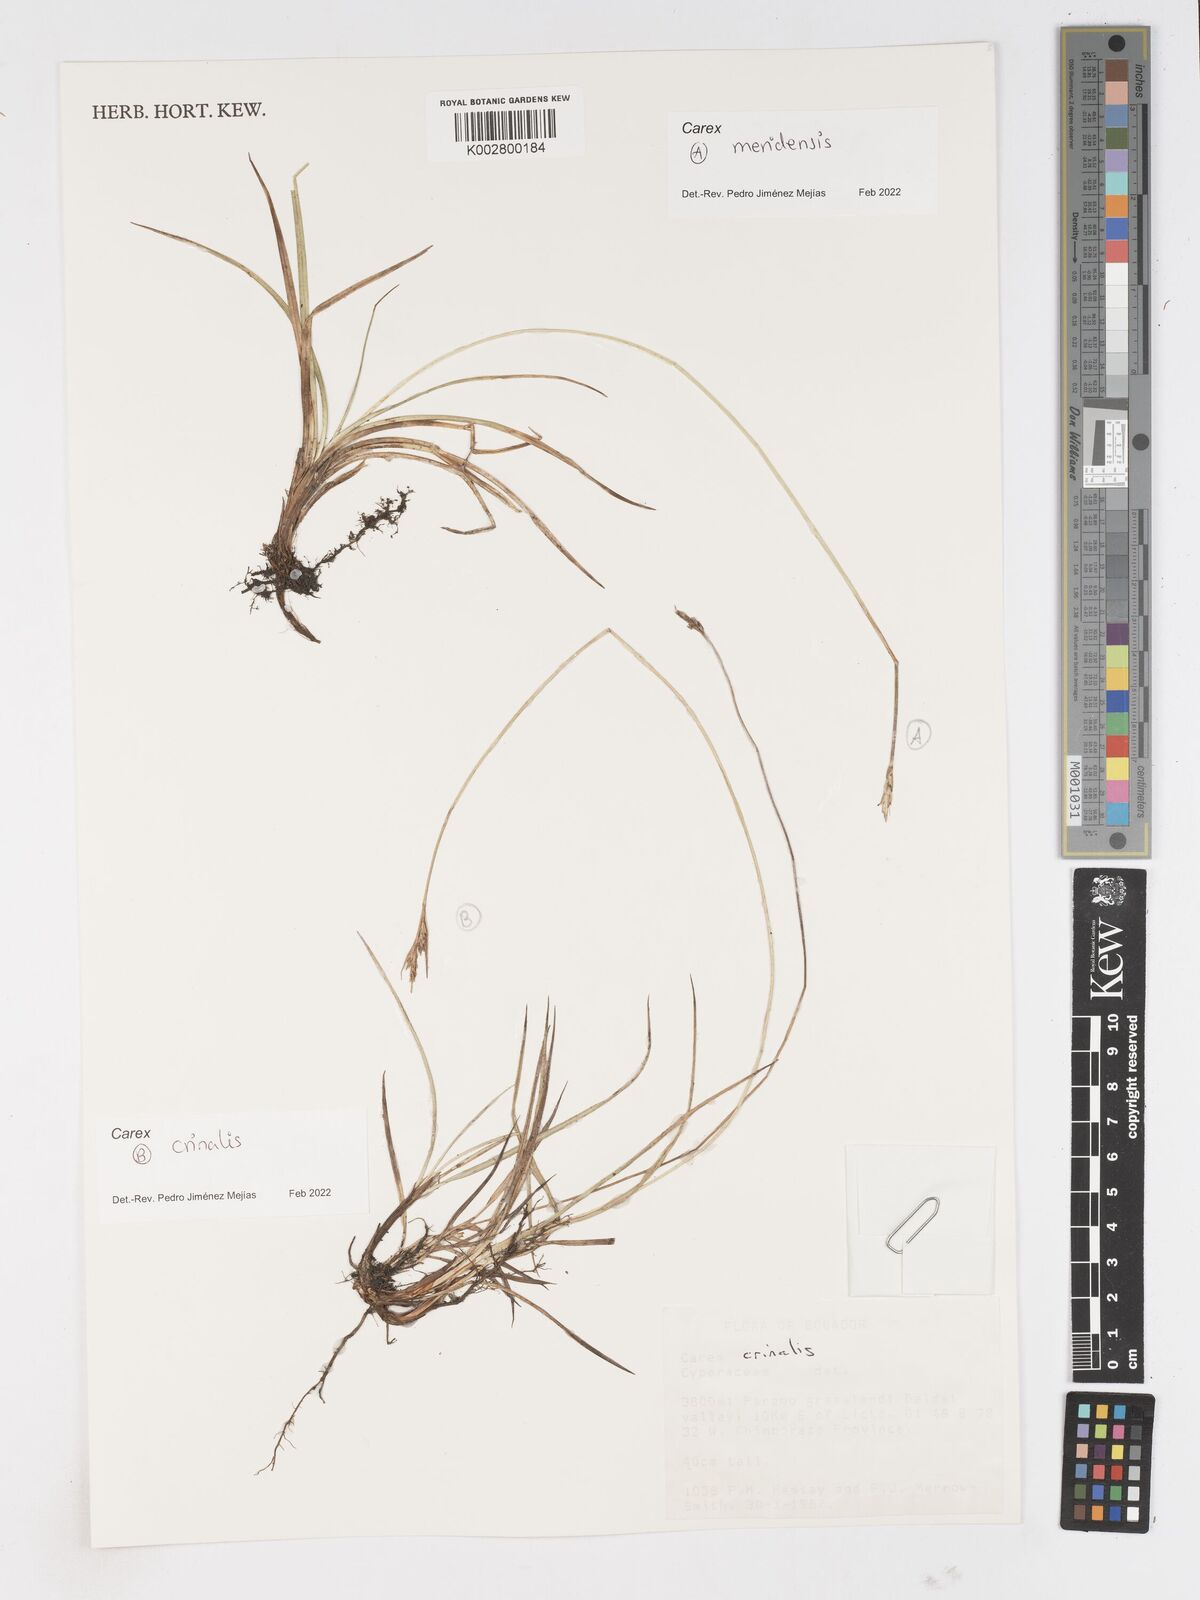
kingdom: Plantae
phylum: Tracheophyta
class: Liliopsida
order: Poales
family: Cyperaceae
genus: Carex
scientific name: Carex crinalis
